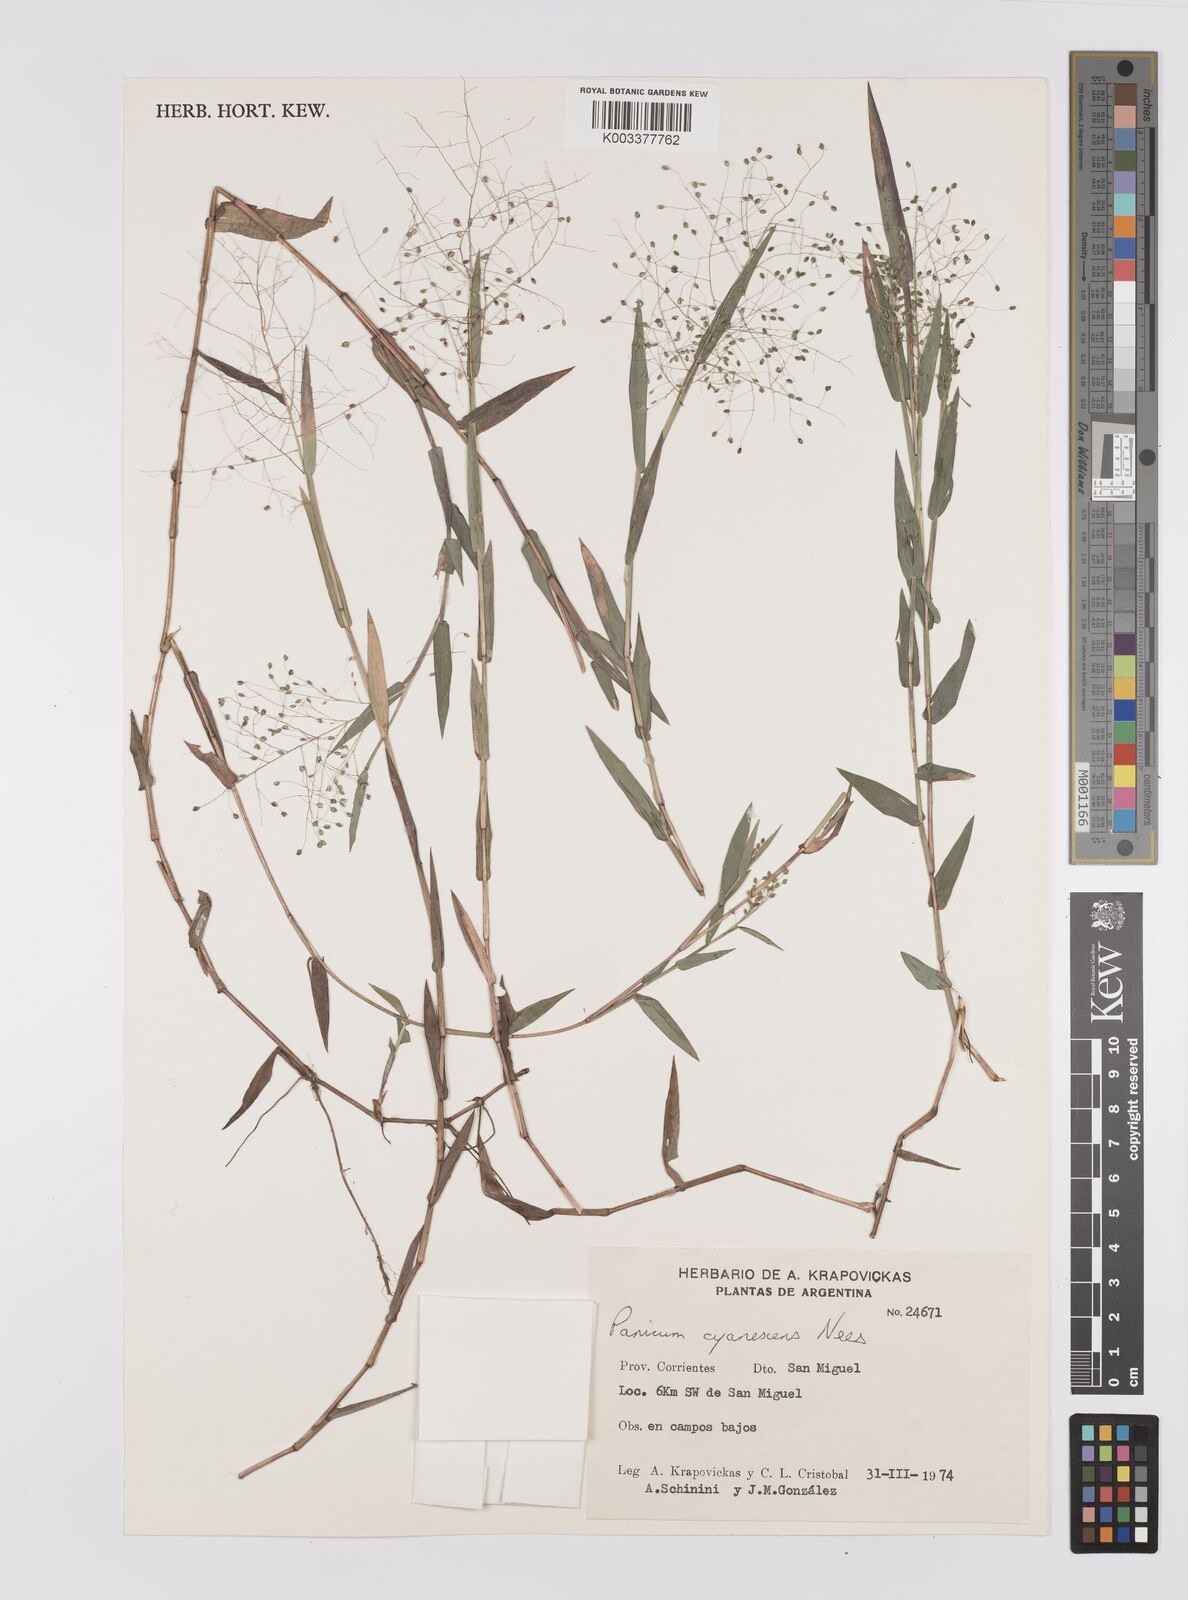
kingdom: Plantae
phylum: Tracheophyta
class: Liliopsida
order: Poales
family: Poaceae
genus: Trichanthecium
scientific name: Trichanthecium schwackeanum
